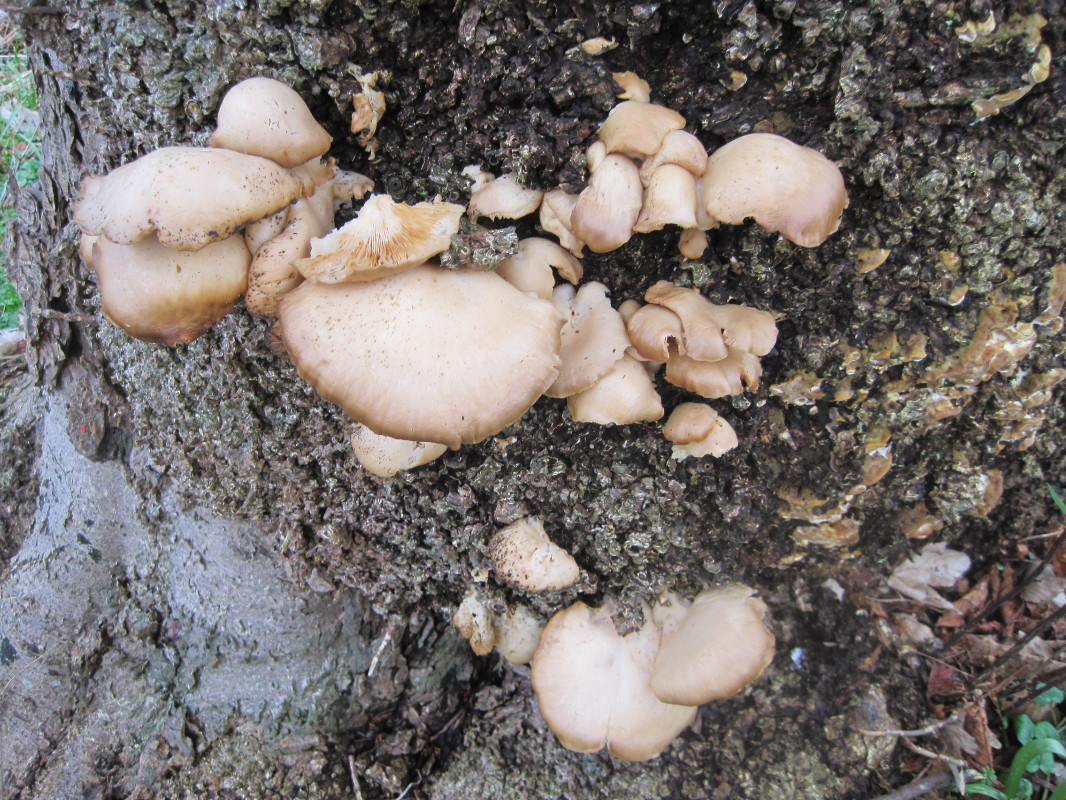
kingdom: Fungi
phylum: Basidiomycota
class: Agaricomycetes
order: Agaricales
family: Pleurotaceae
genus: Pleurotus
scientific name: Pleurotus ostreatus
